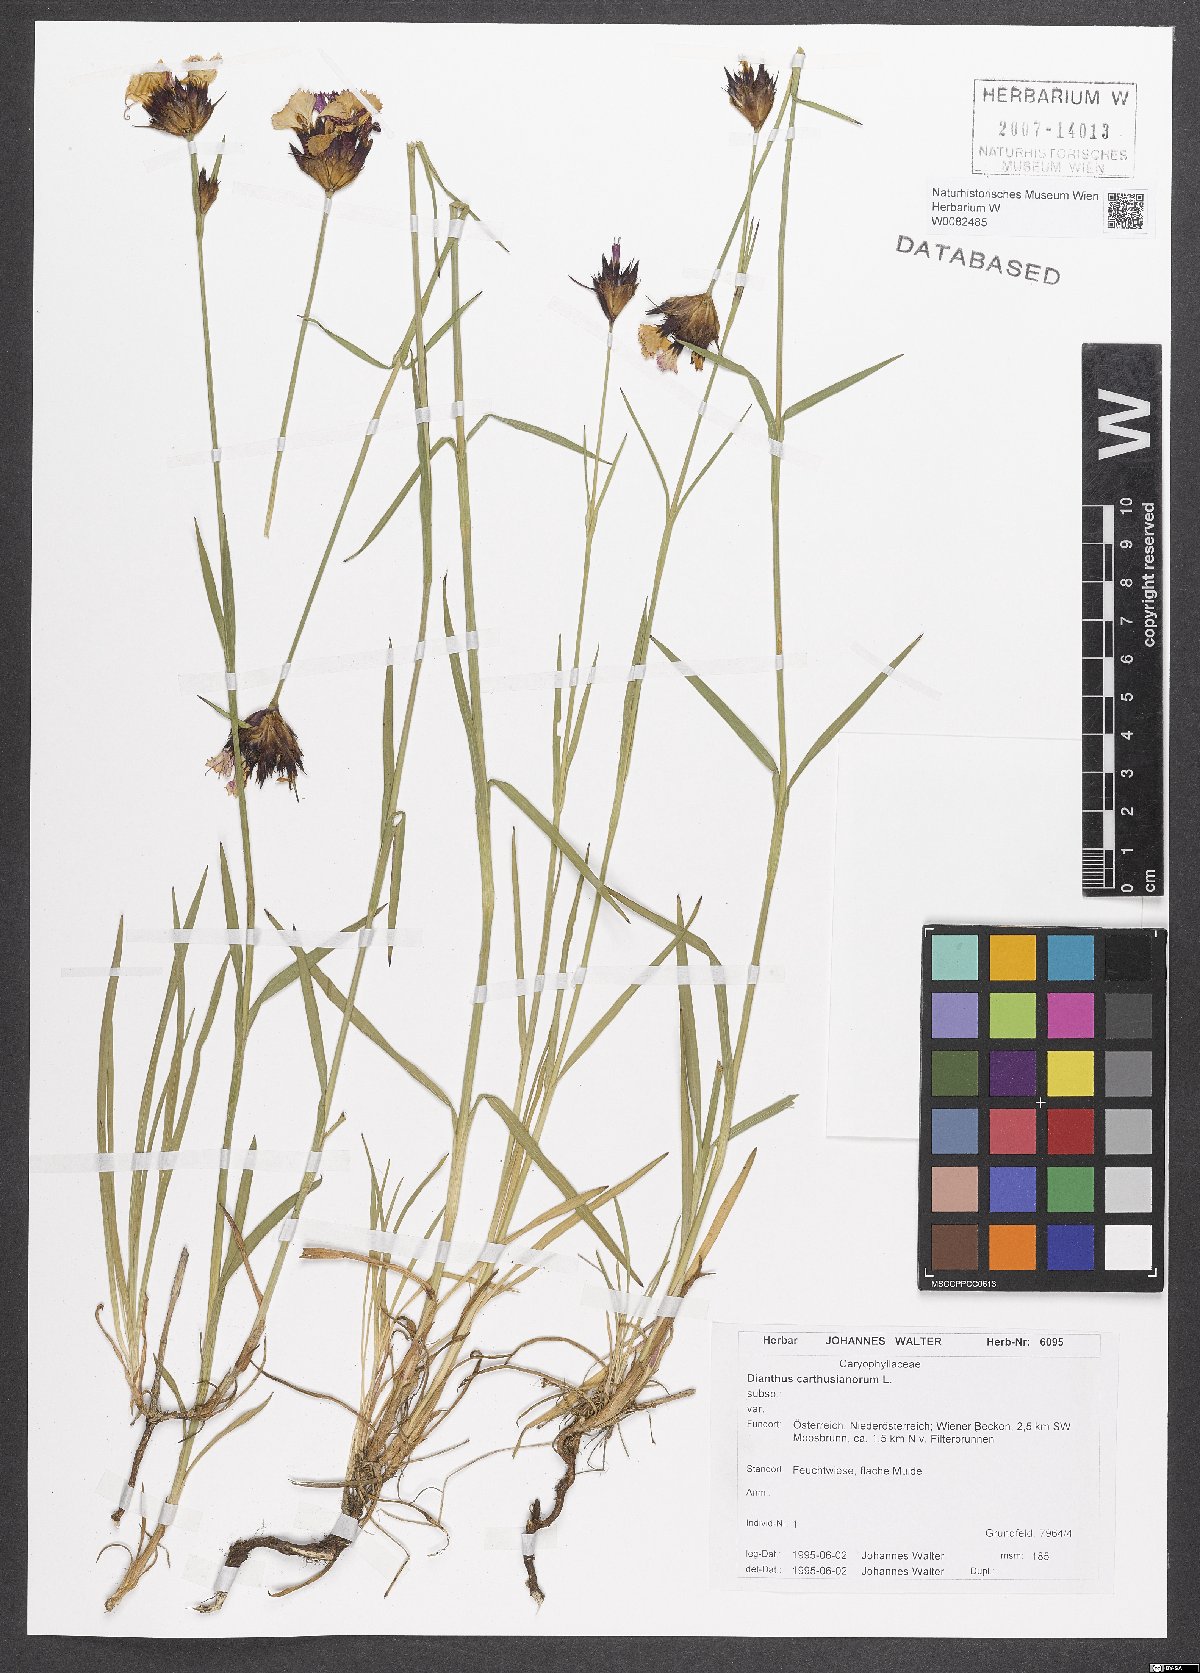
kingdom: Plantae
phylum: Tracheophyta
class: Magnoliopsida
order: Caryophyllales
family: Caryophyllaceae
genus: Dianthus
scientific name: Dianthus carthusianorum
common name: Carthusian pink
